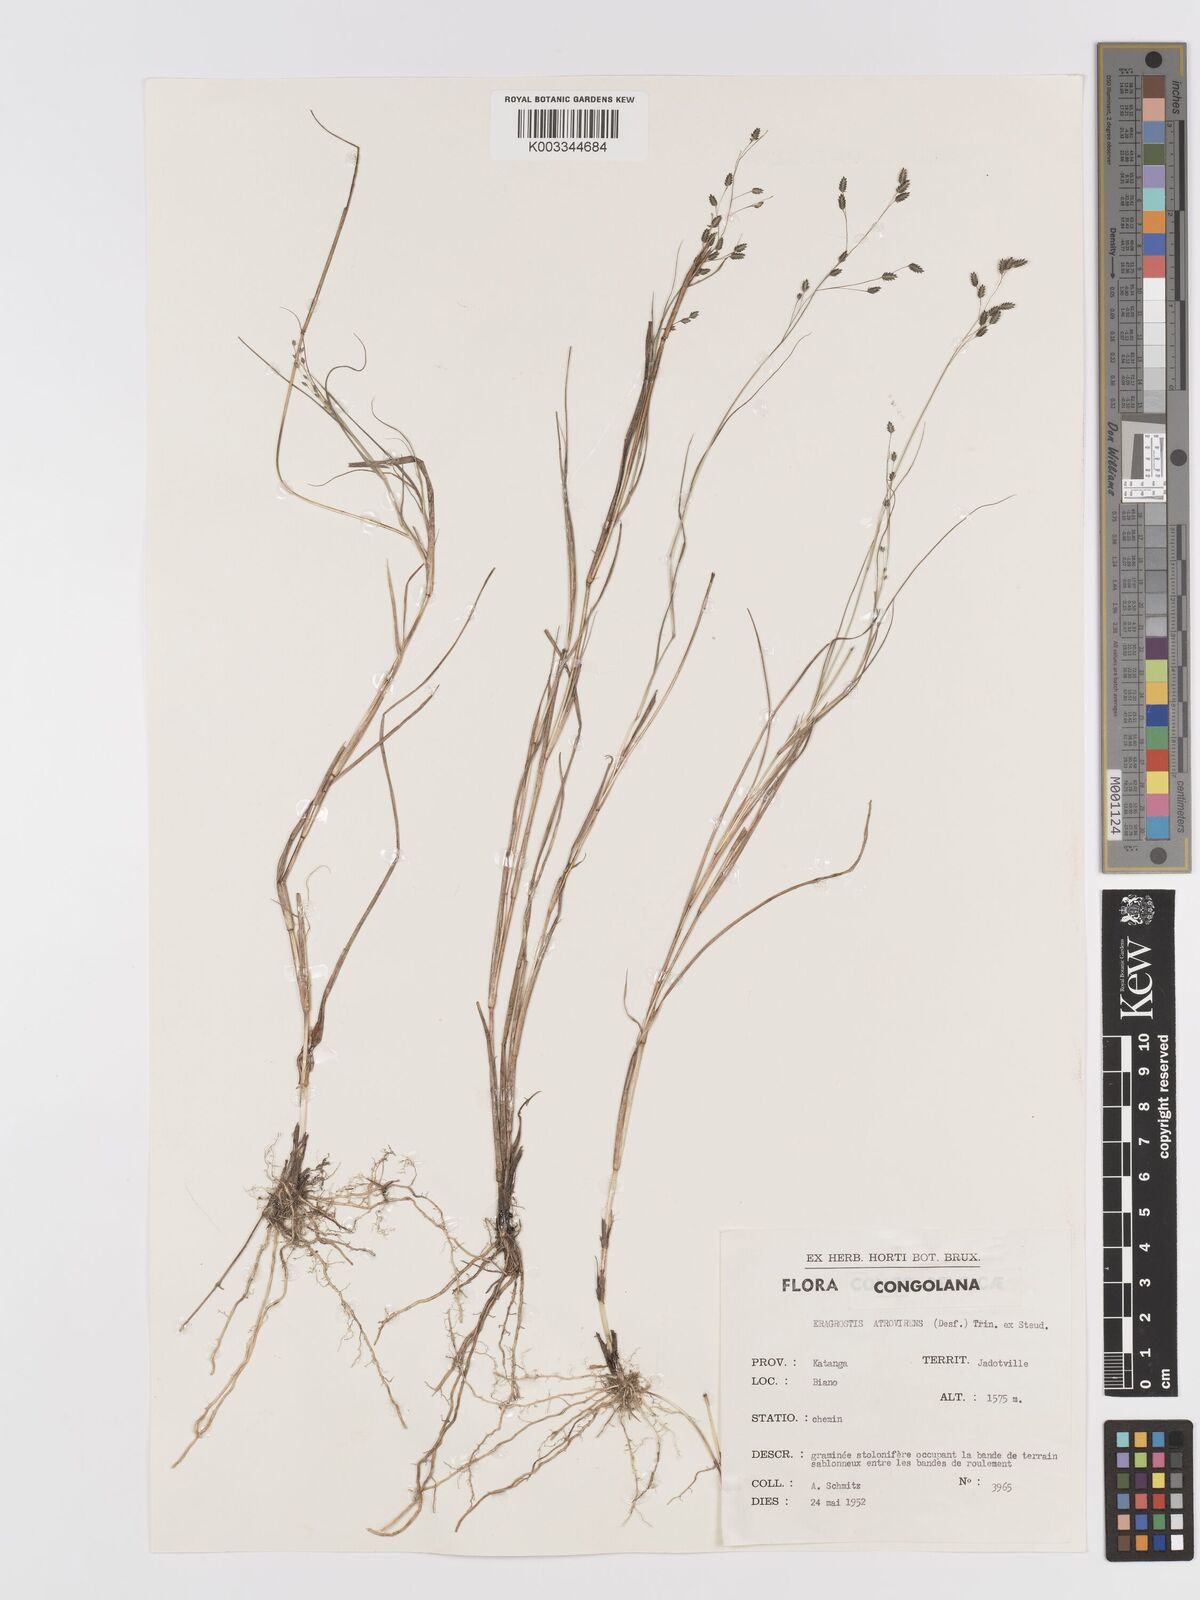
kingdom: Plantae
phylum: Tracheophyta
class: Liliopsida
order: Poales
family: Poaceae
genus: Eragrostis
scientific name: Eragrostis atrovirens
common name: Thalia lovegrass
